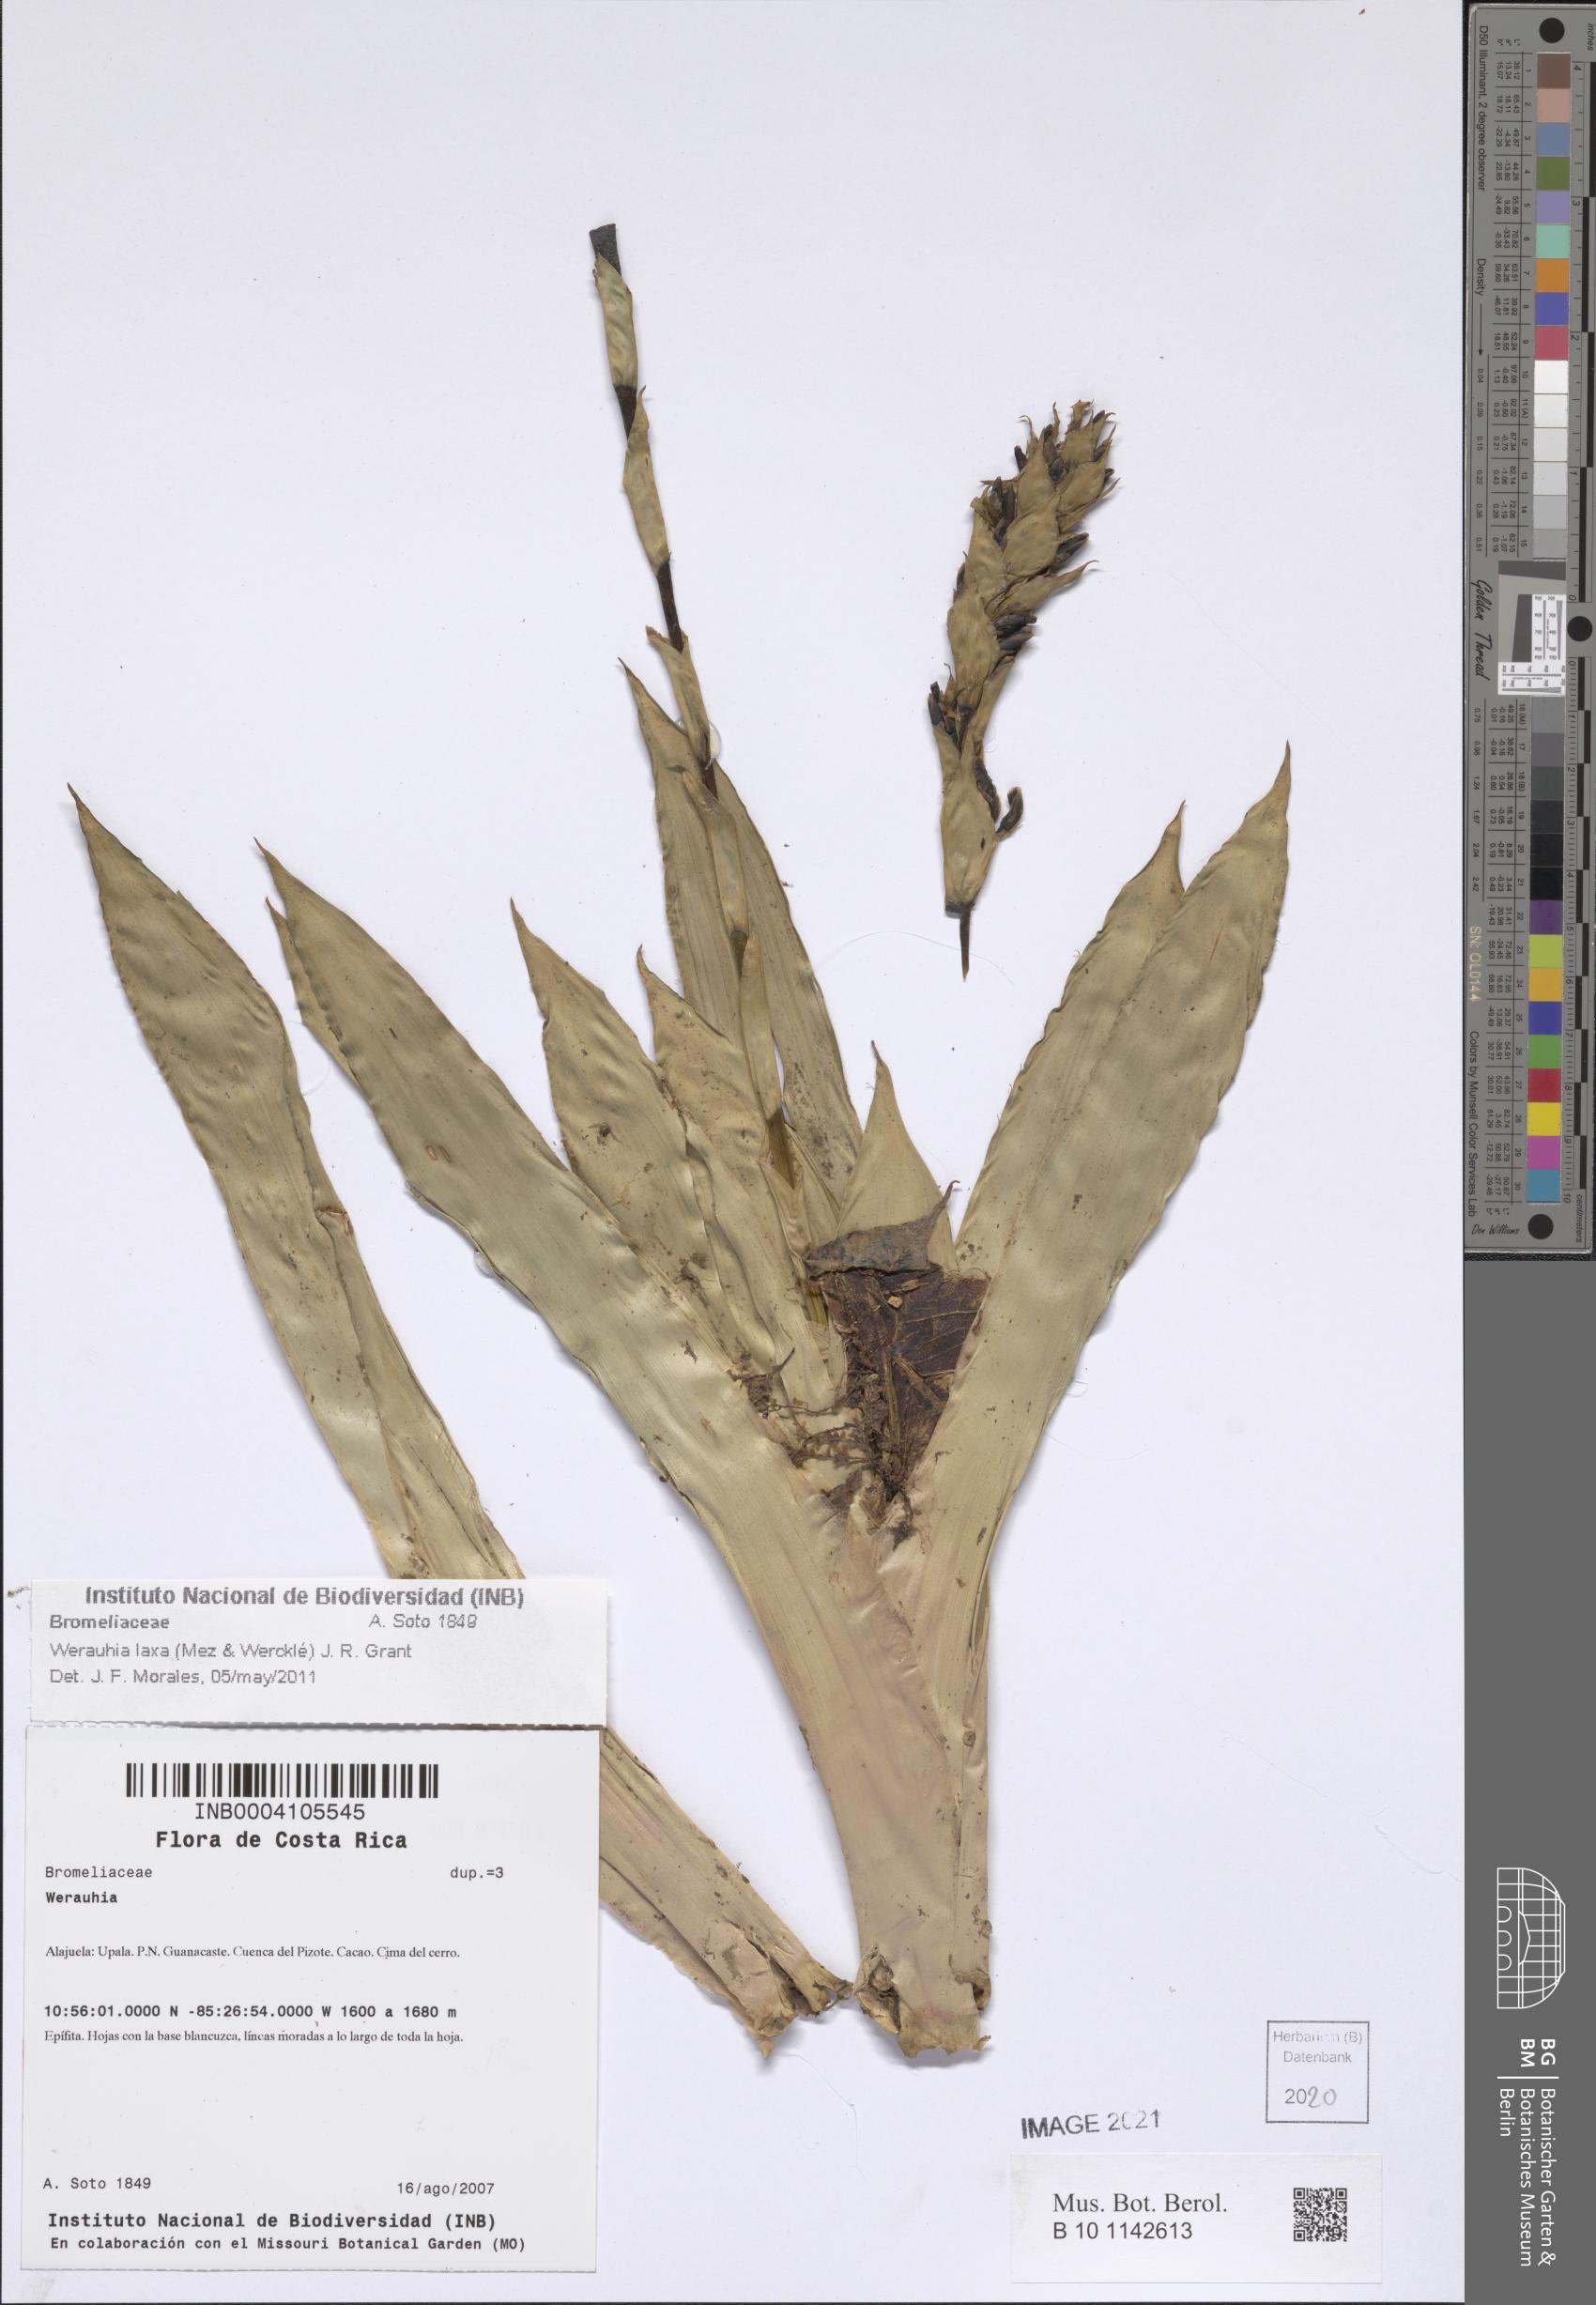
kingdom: Plantae
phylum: Tracheophyta
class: Liliopsida
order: Poales
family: Bromeliaceae
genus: Werauhia
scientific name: Werauhia laxa
